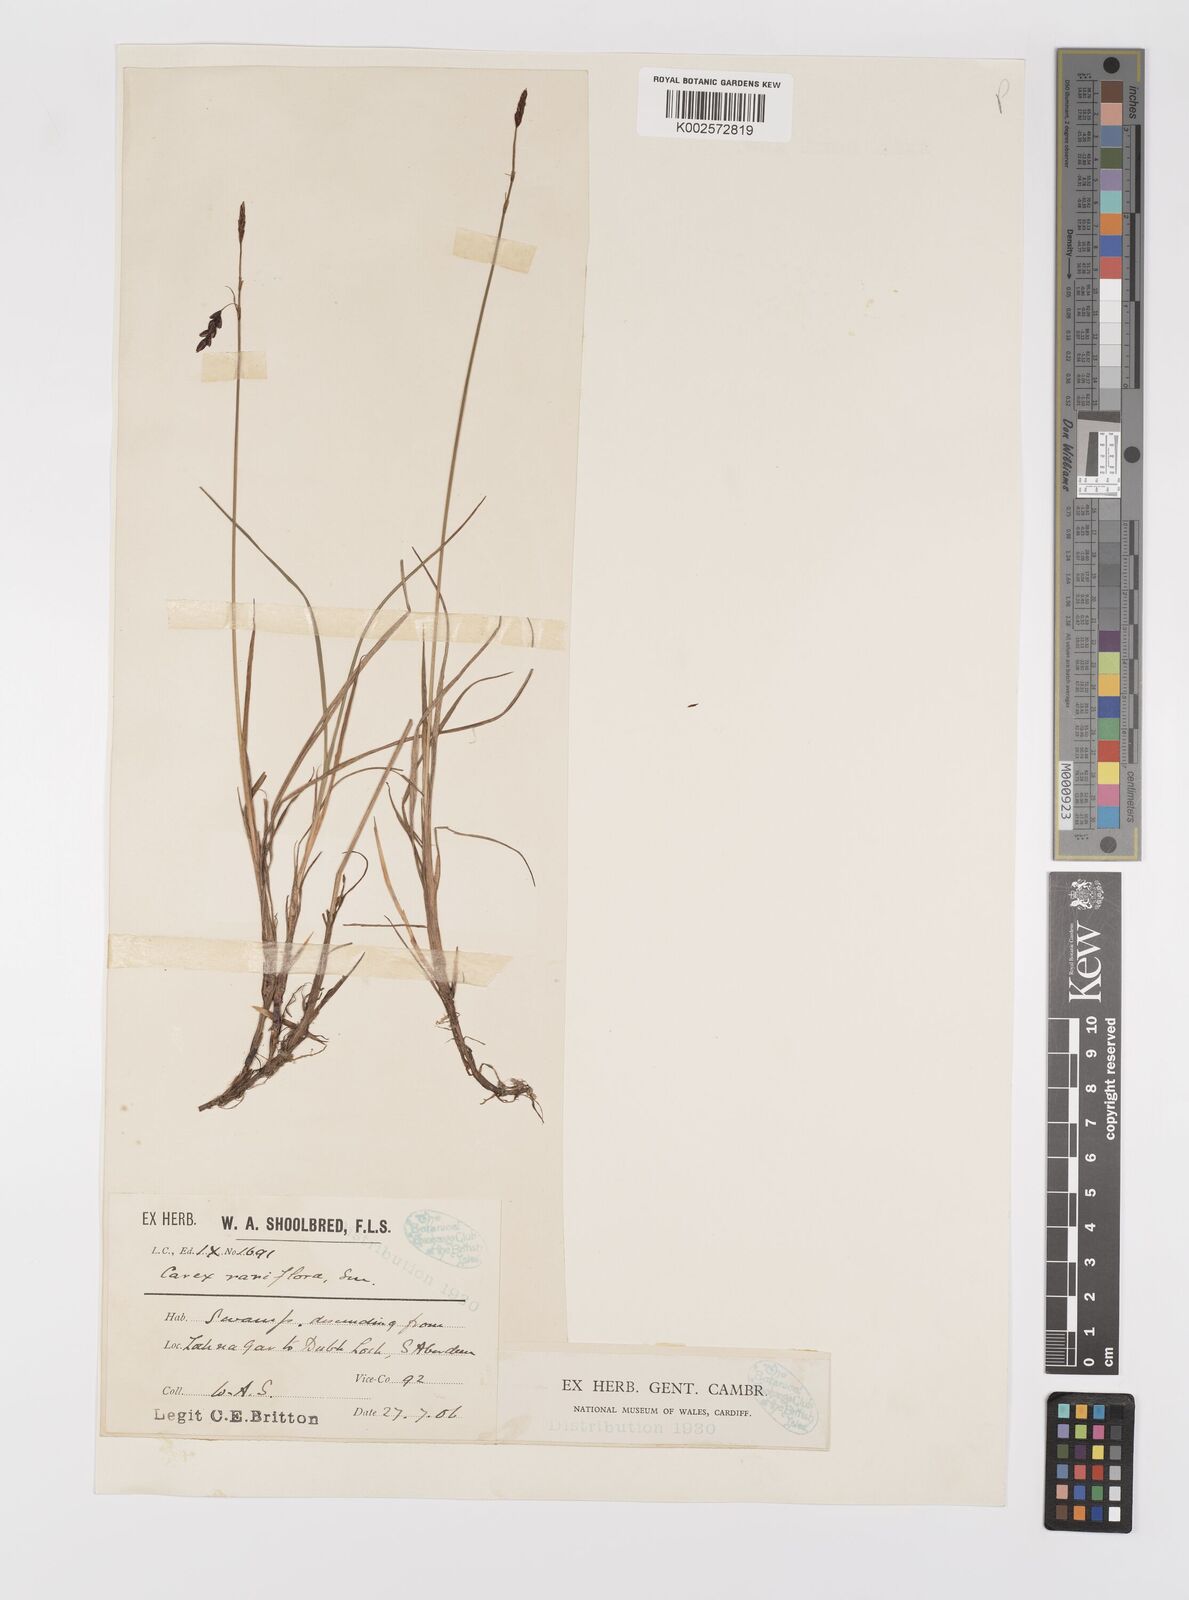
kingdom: Plantae
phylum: Tracheophyta
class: Liliopsida
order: Poales
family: Cyperaceae
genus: Carex
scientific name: Carex rariflora
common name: Loose-flowered alpine sedge
